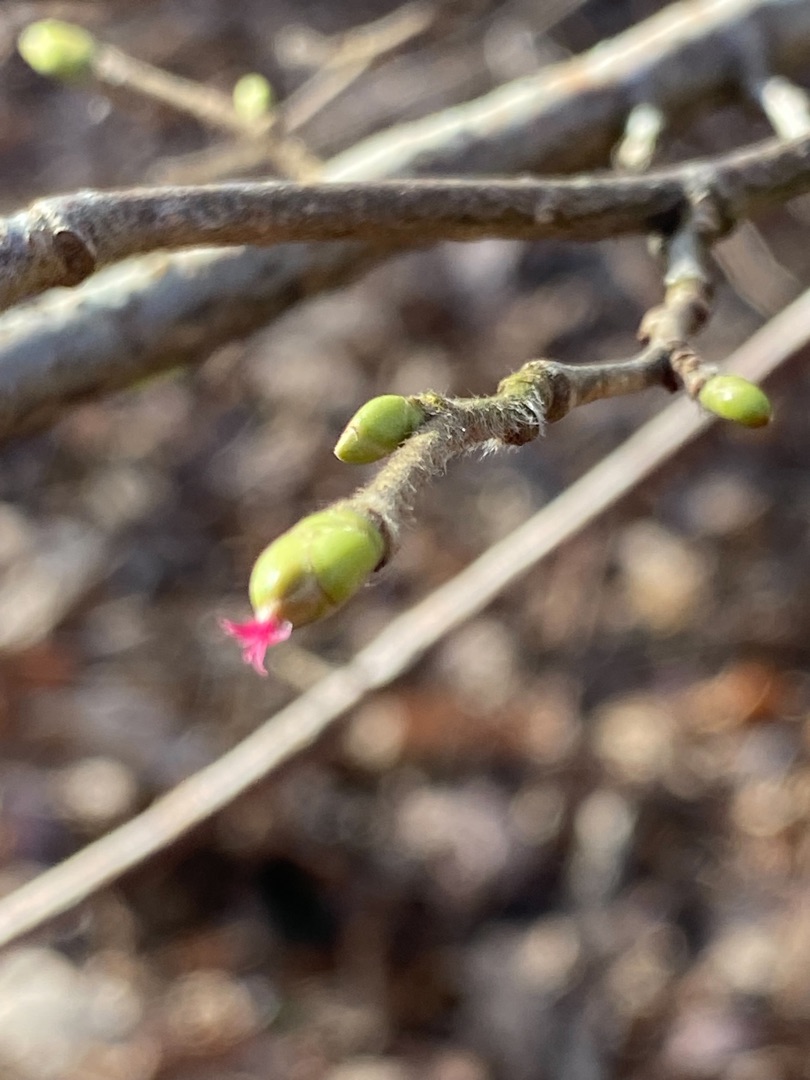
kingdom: Plantae
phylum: Tracheophyta
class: Magnoliopsida
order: Fagales
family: Betulaceae
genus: Corylus
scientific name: Corylus avellana
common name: Hassel
